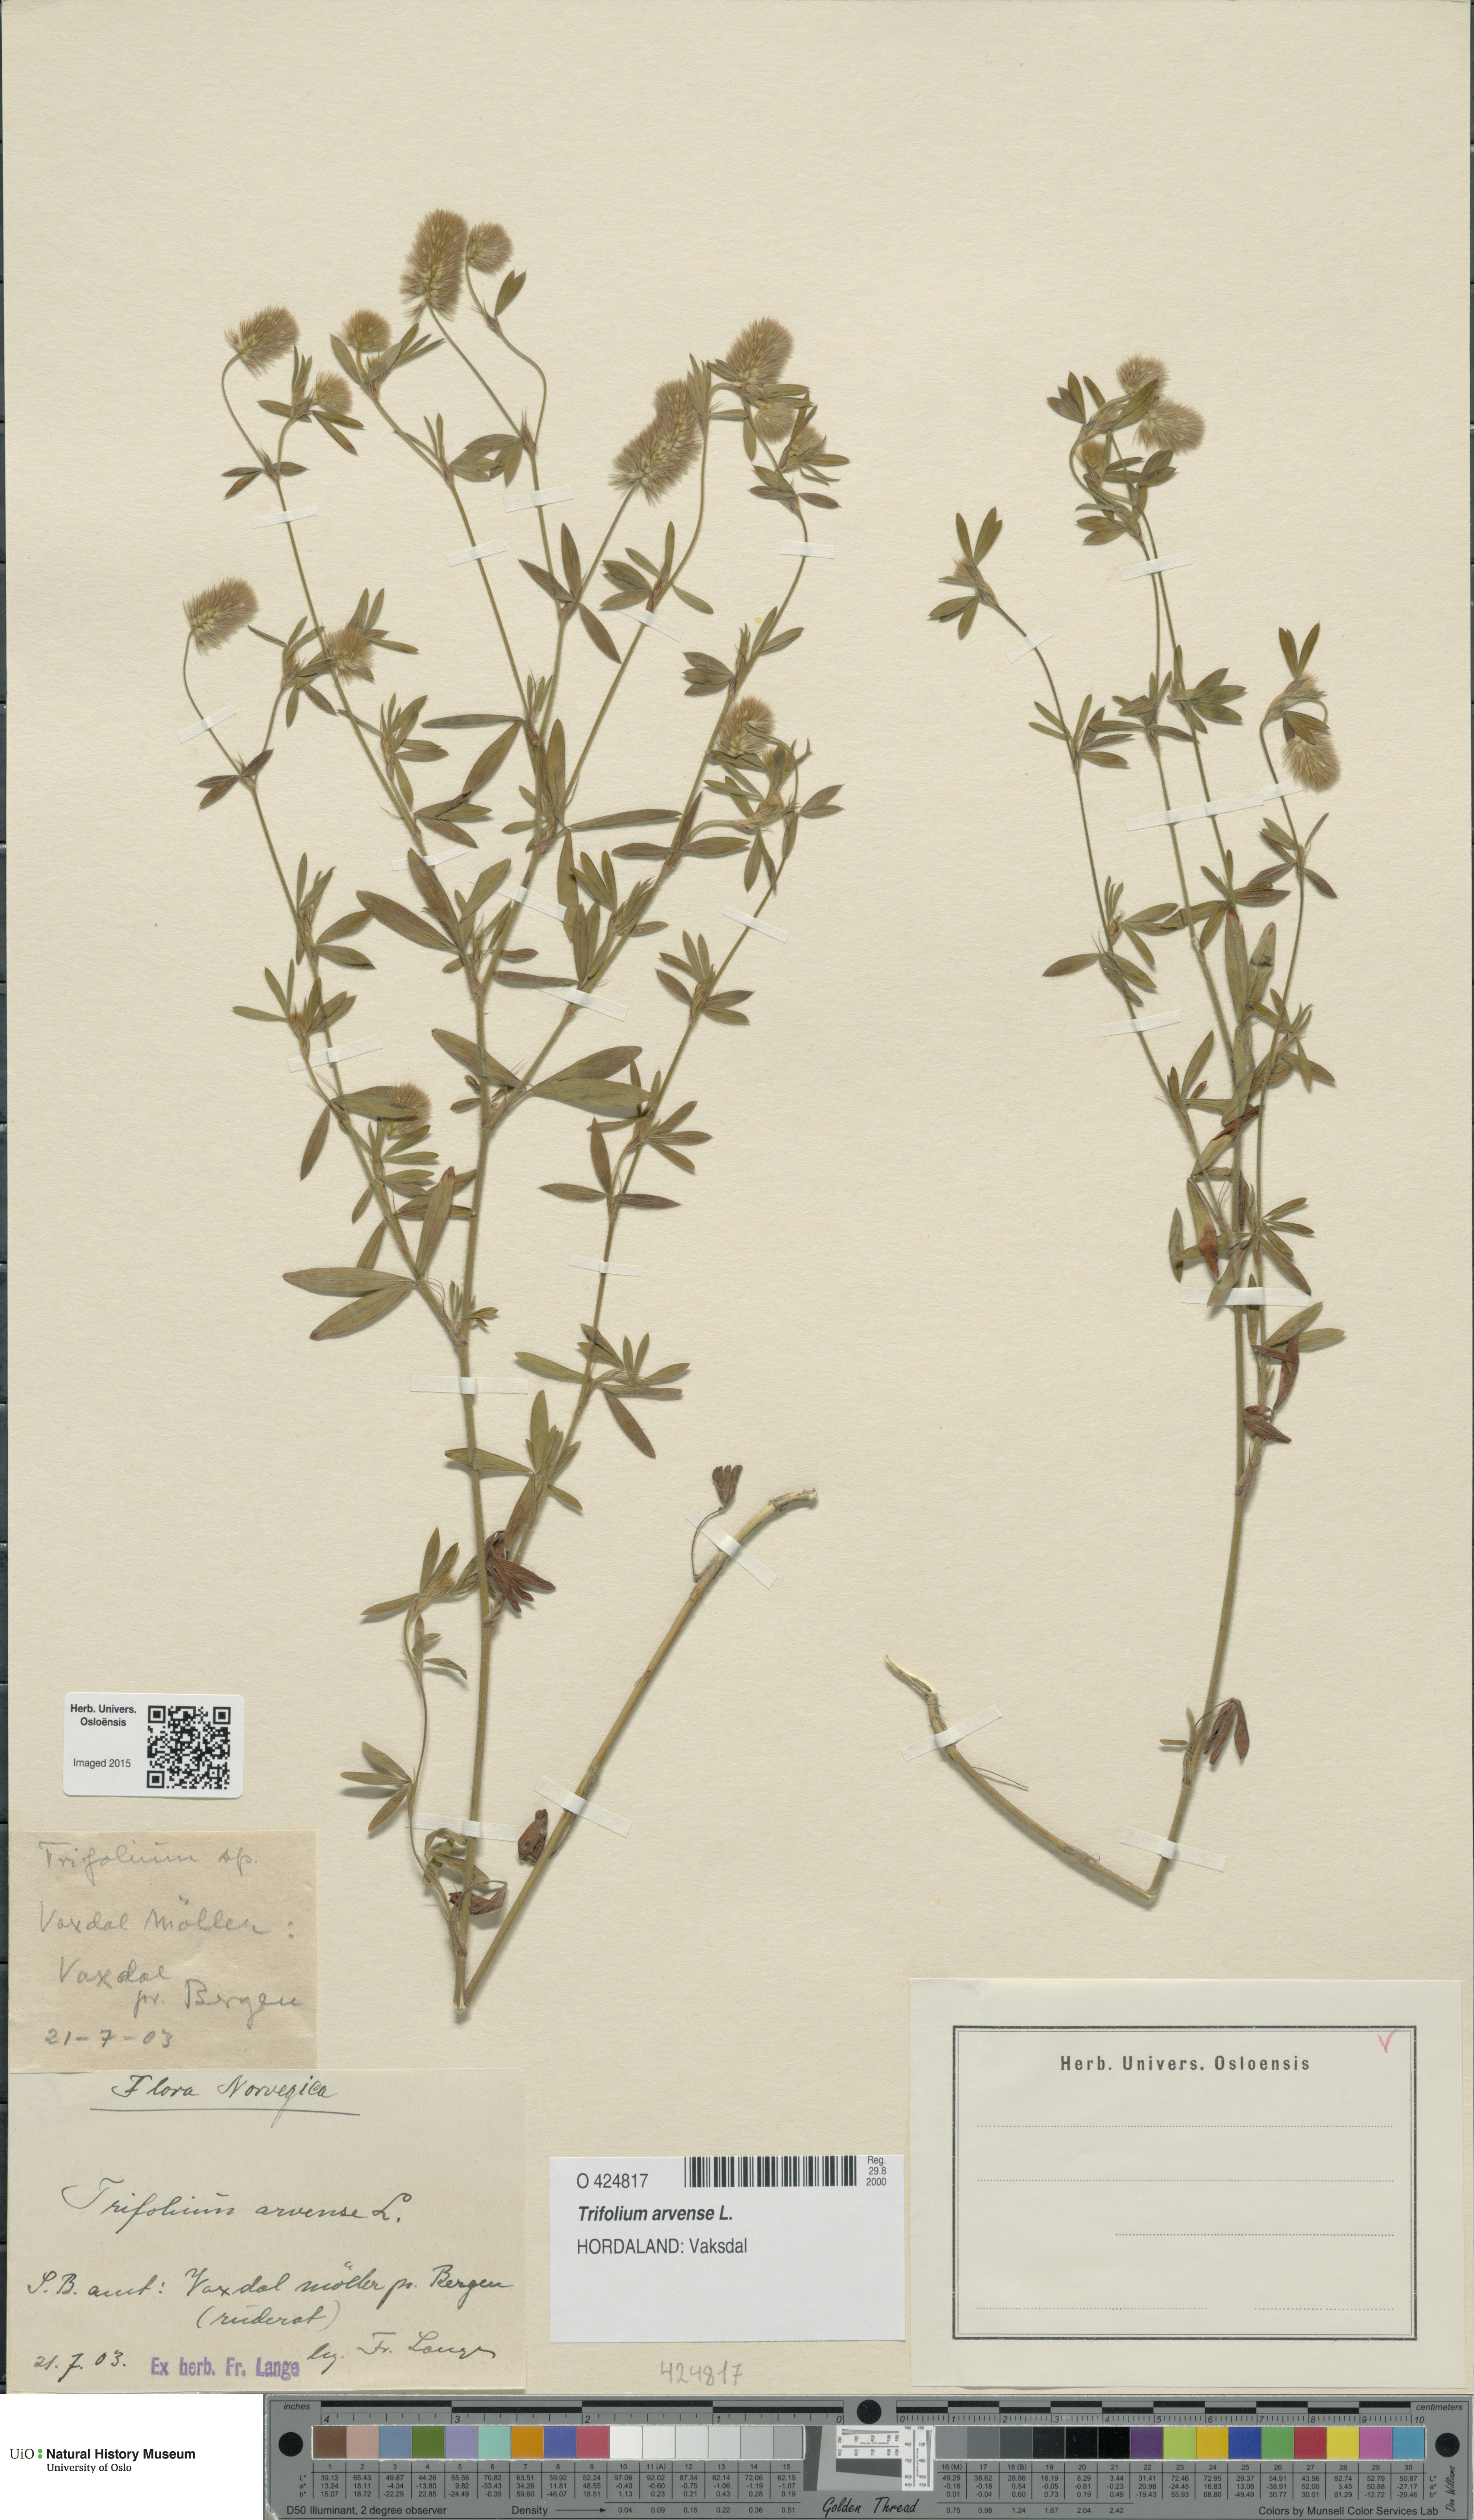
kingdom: Plantae
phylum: Tracheophyta
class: Magnoliopsida
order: Fabales
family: Fabaceae
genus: Trifolium
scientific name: Trifolium arvense
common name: Hare's-foot clover
